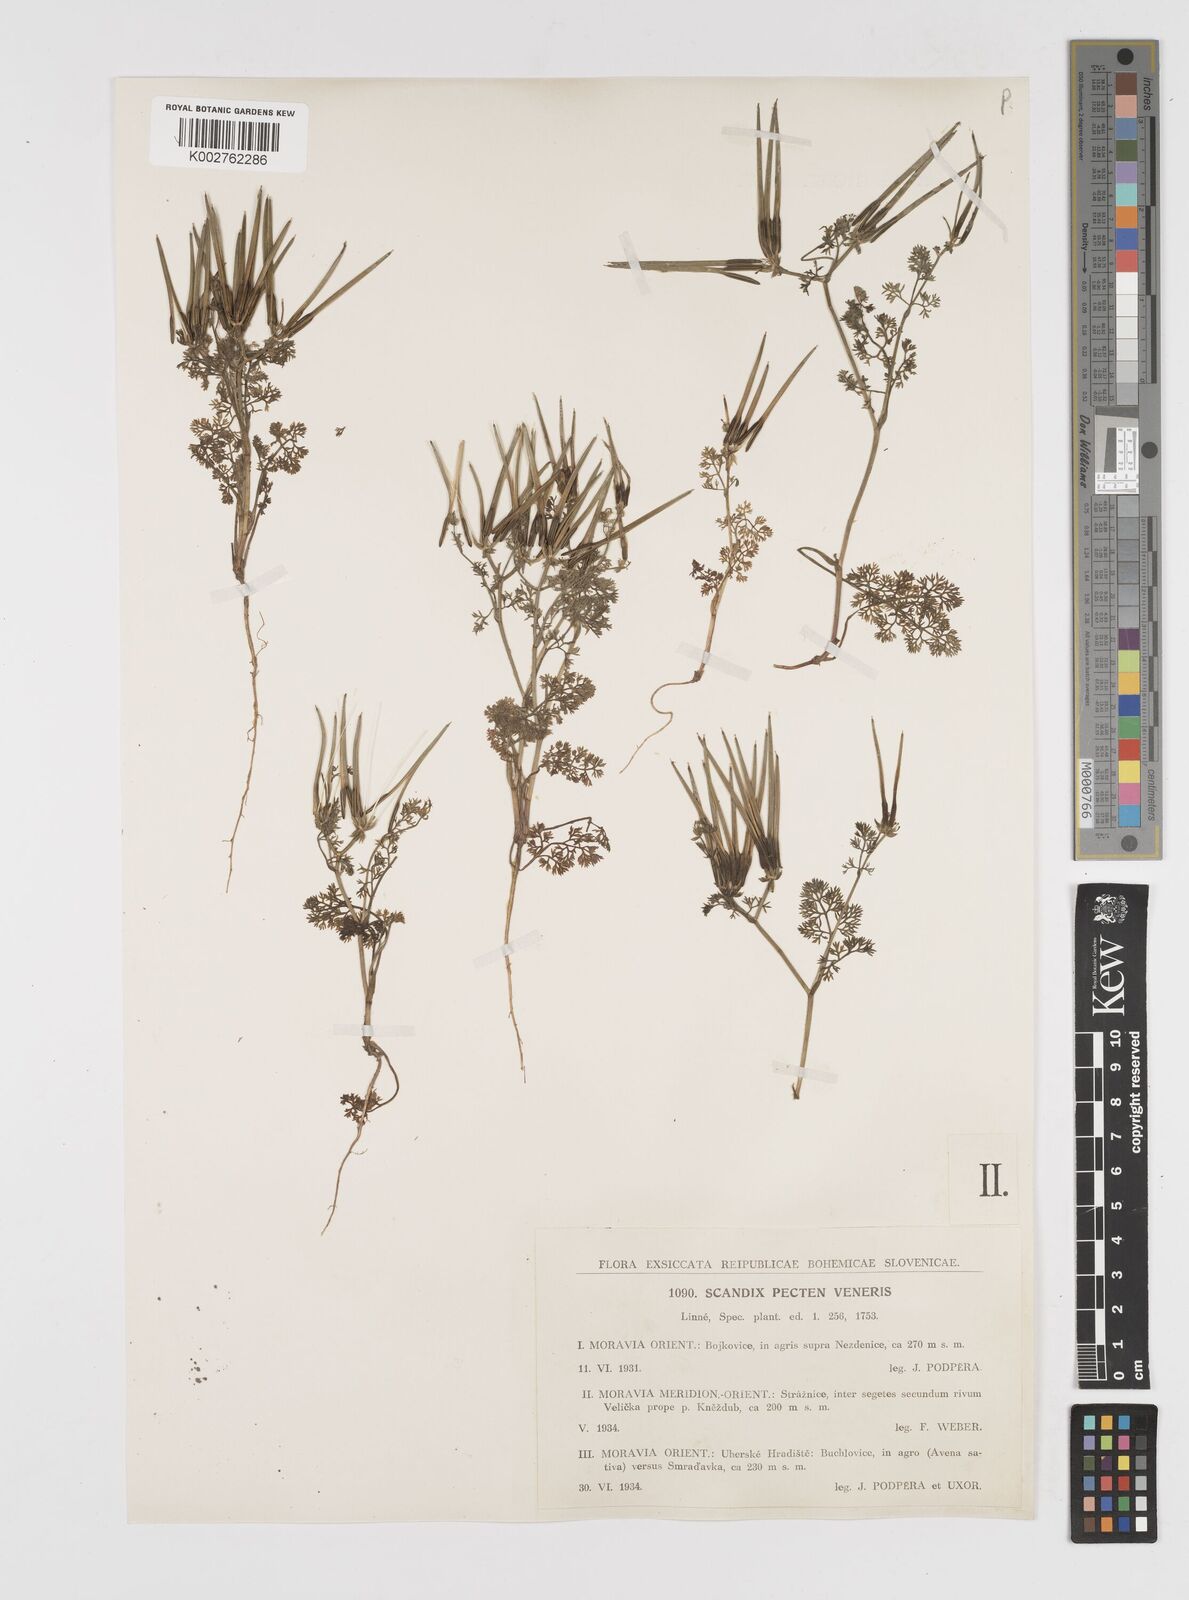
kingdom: Plantae
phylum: Tracheophyta
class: Magnoliopsida
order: Apiales
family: Apiaceae
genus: Scandix
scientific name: Scandix pecten-veneris
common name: Shepherd's-needle
